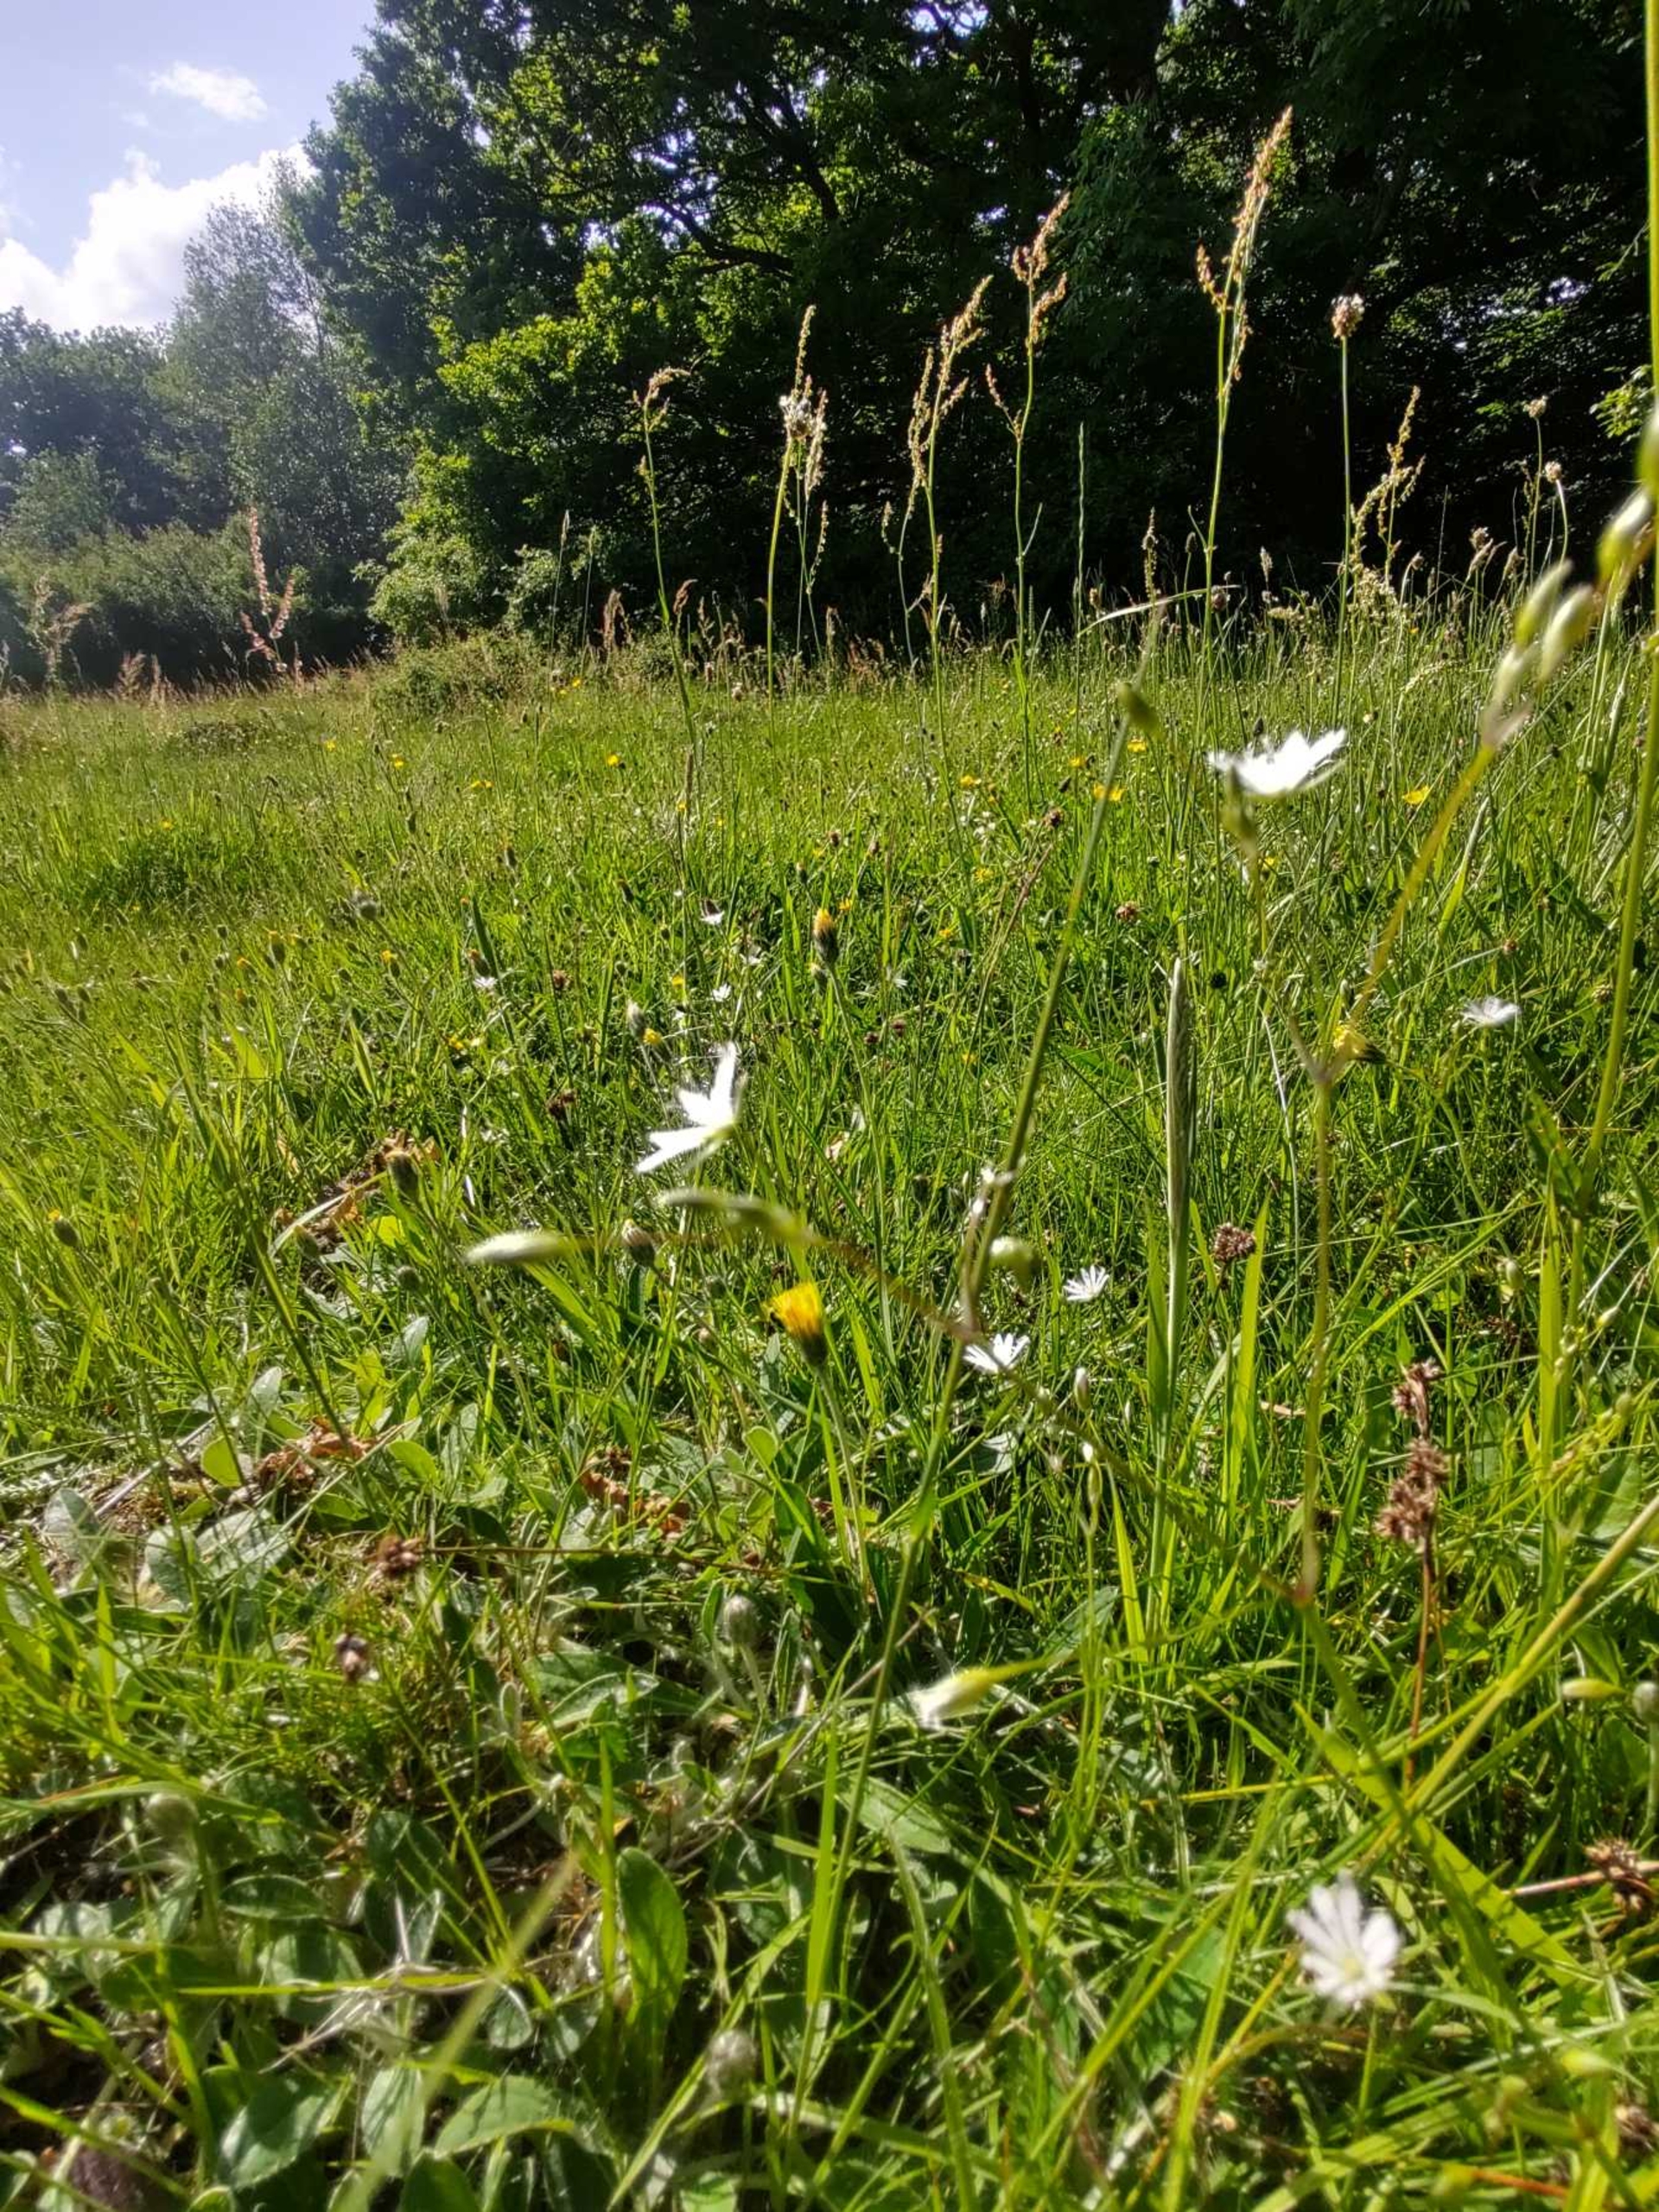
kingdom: Plantae
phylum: Tracheophyta
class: Magnoliopsida
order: Caryophyllales
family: Caryophyllaceae
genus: Stellaria
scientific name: Stellaria graminea
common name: Græsbladet fladstjerne
